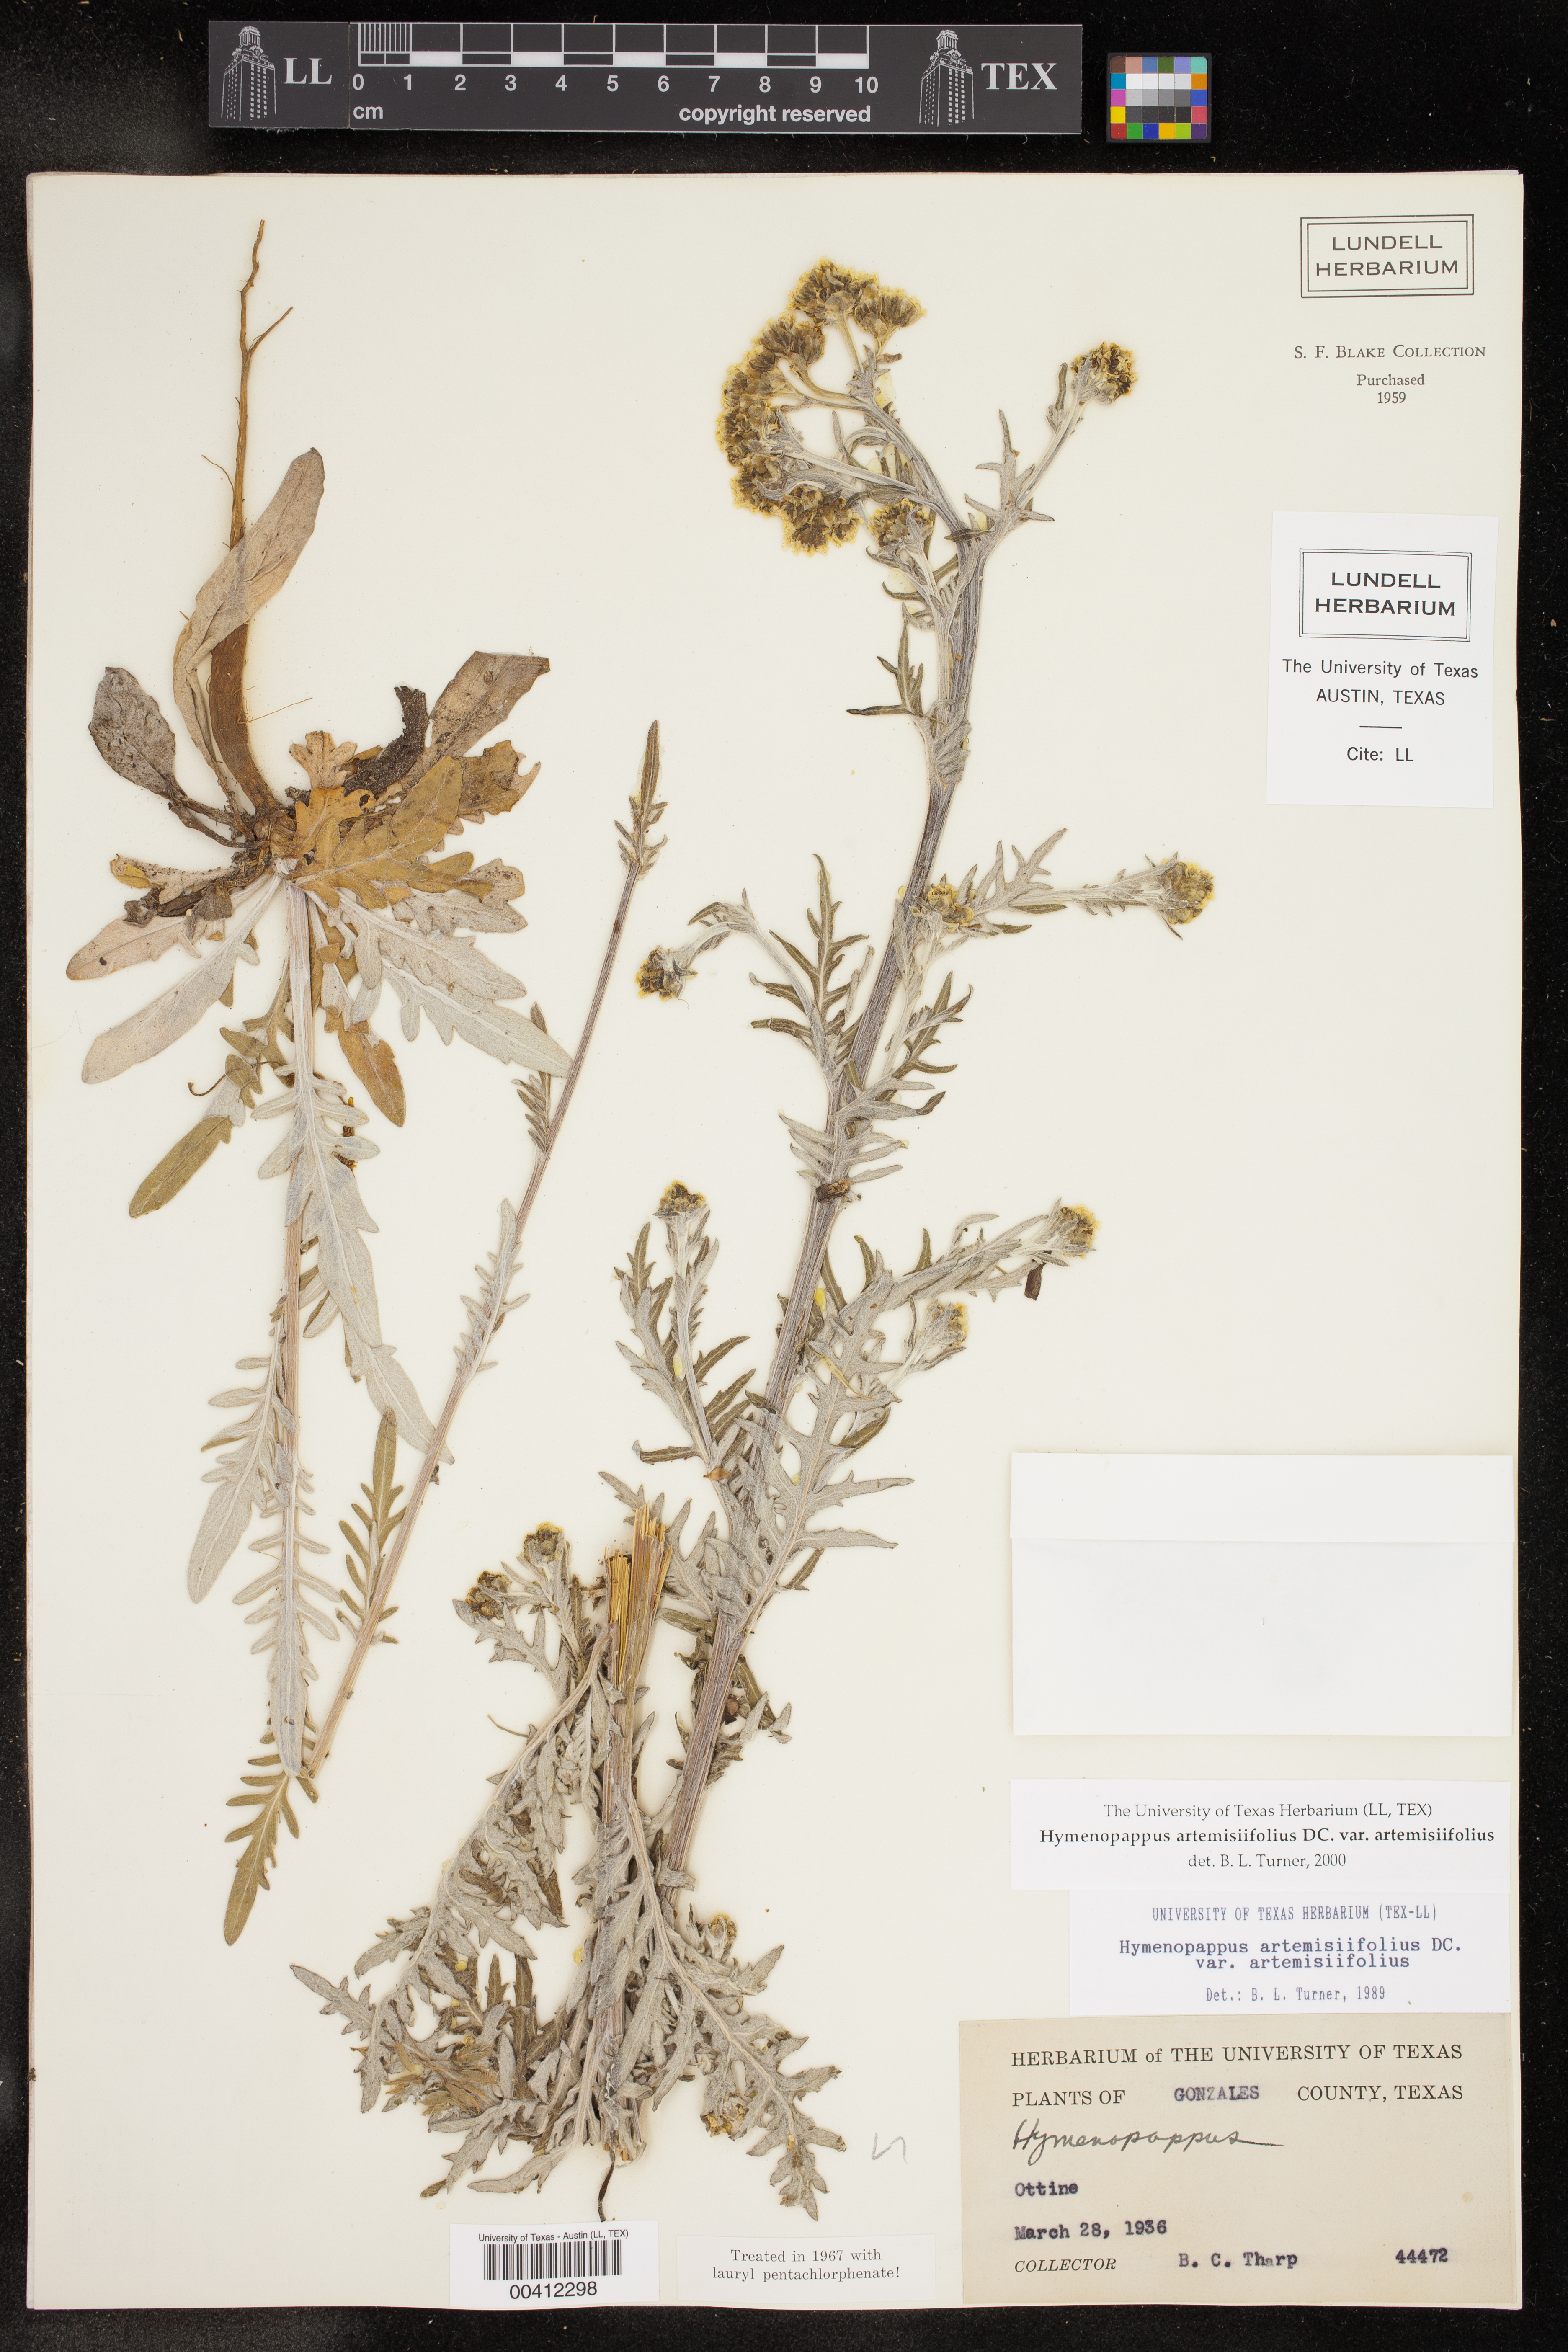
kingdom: Plantae
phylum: Tracheophyta
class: Magnoliopsida
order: Asterales
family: Asteraceae
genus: Hymenopappus
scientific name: Hymenopappus artemisiifolius
